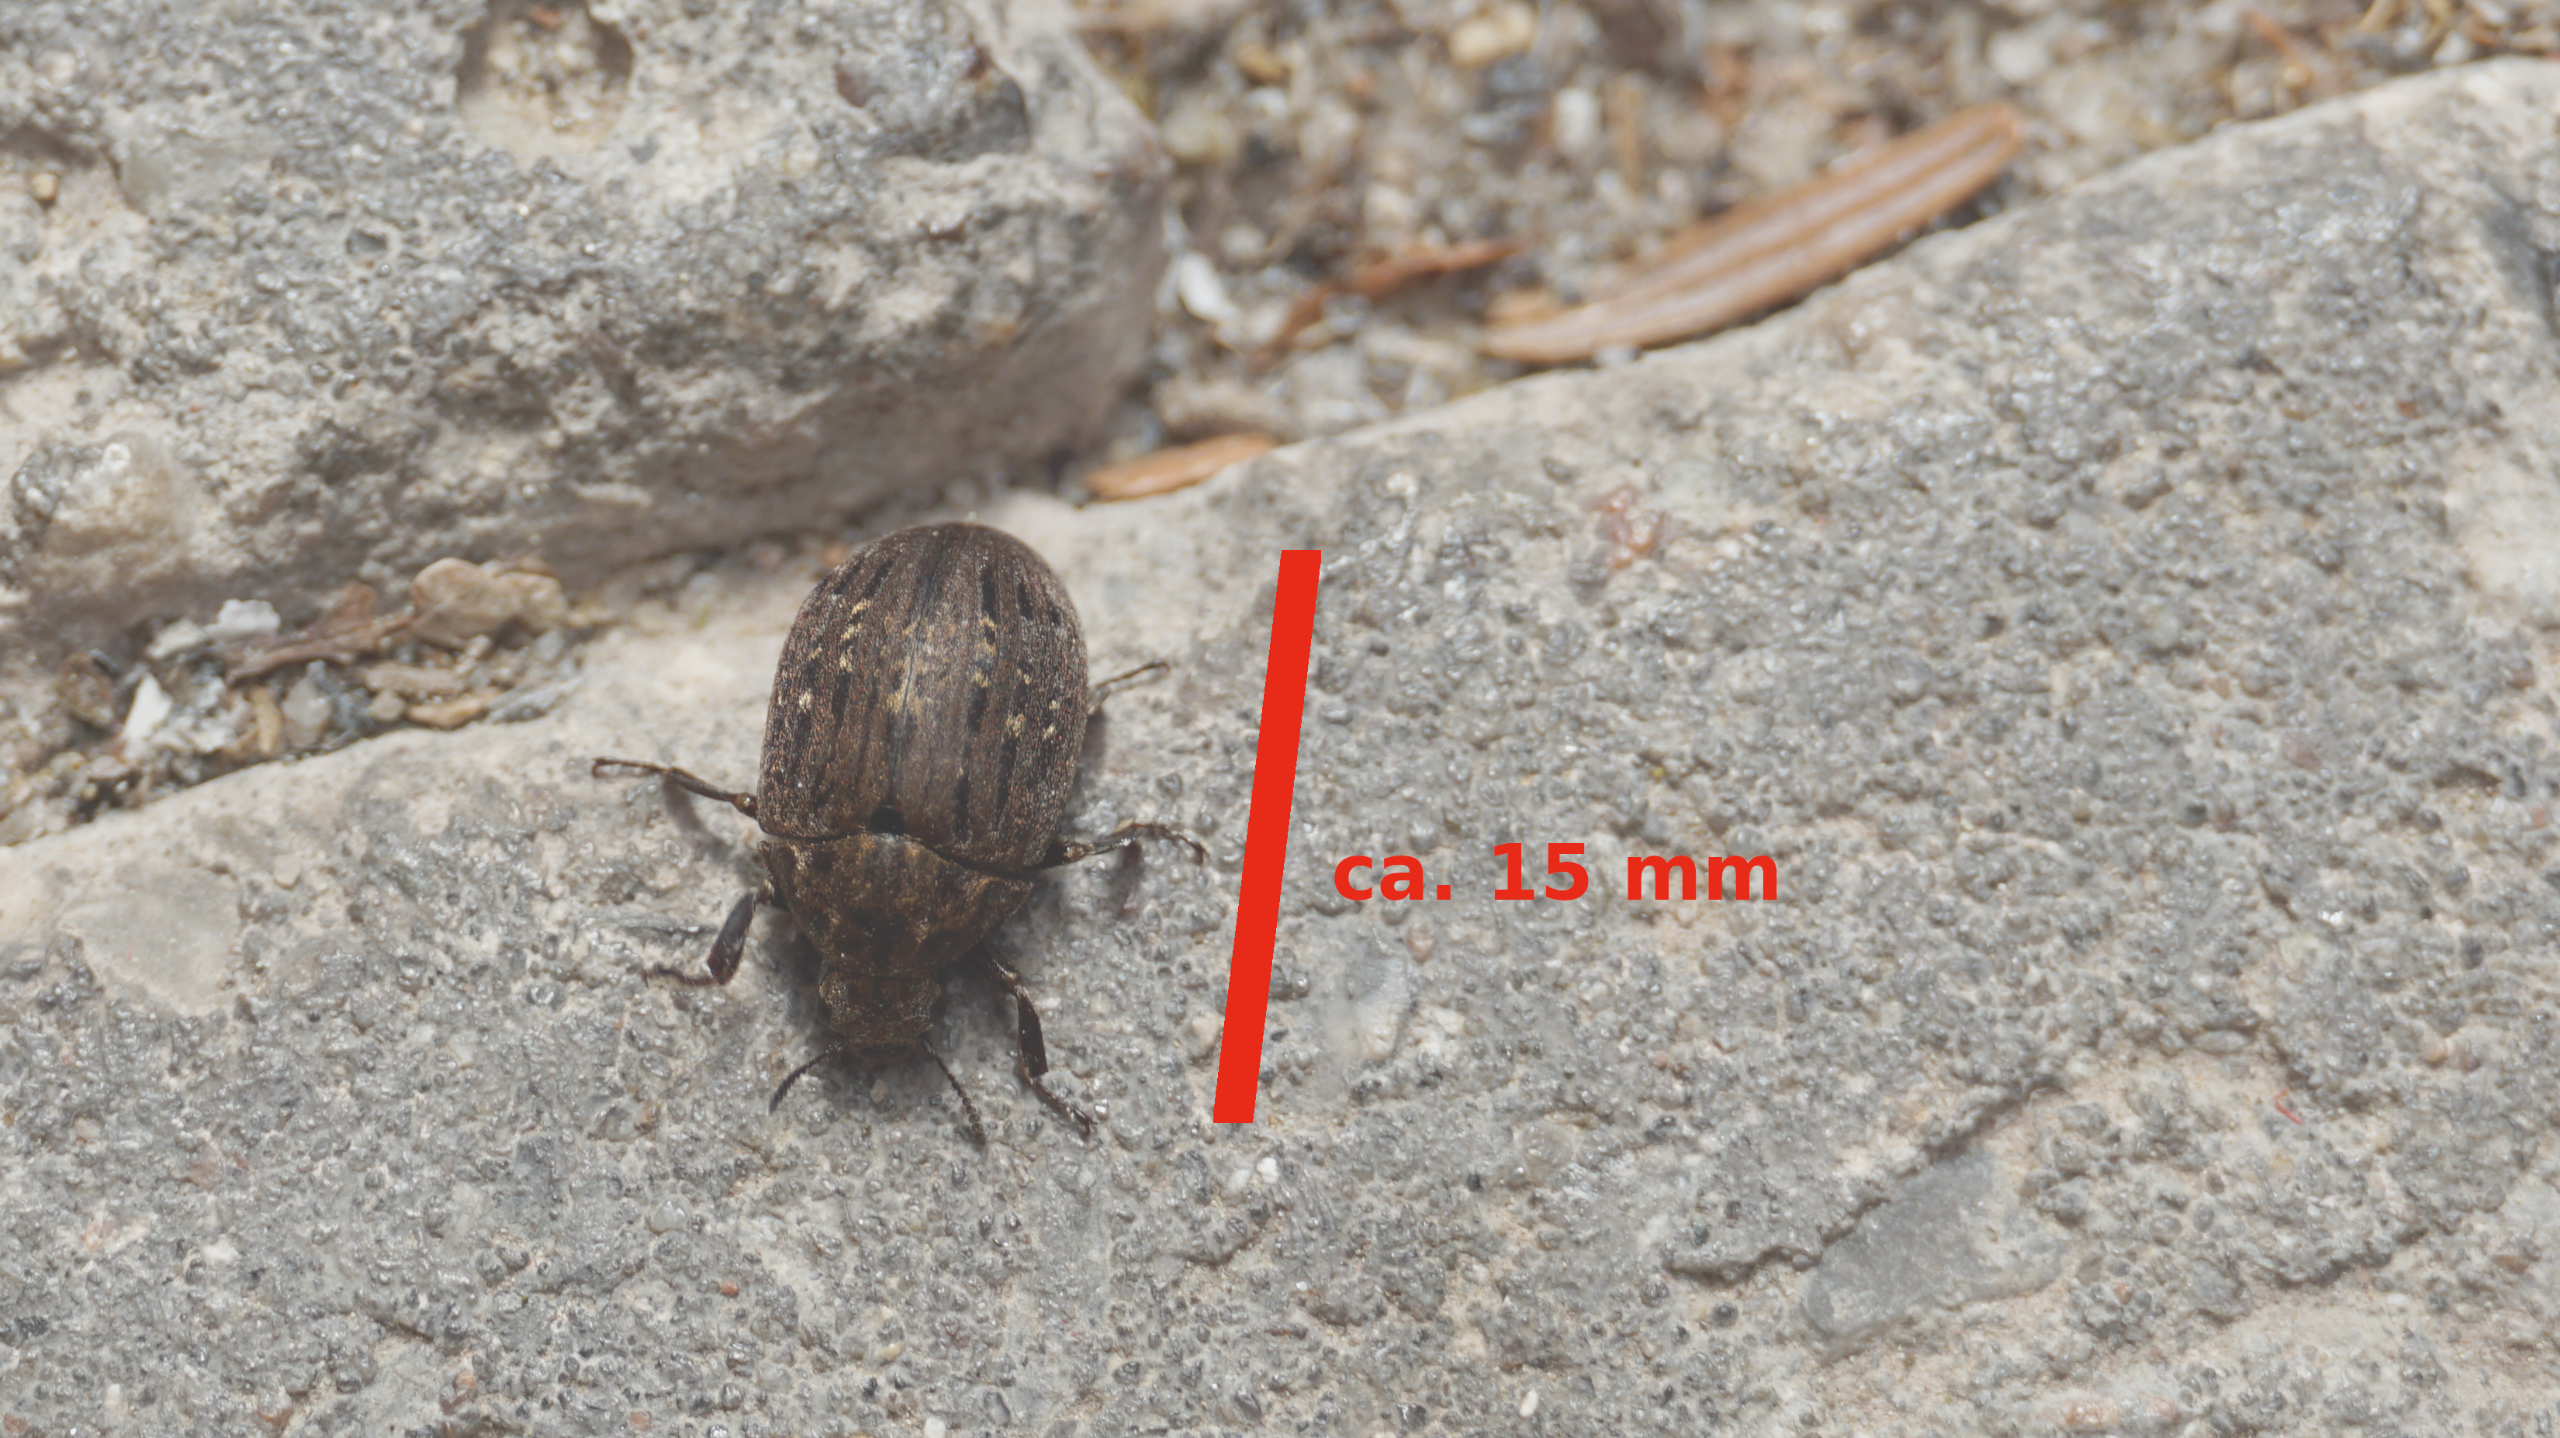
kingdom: Animalia
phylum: Arthropoda
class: Insecta
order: Coleoptera
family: Byrrhidae
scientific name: Byrrhidae
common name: Ødebiller
